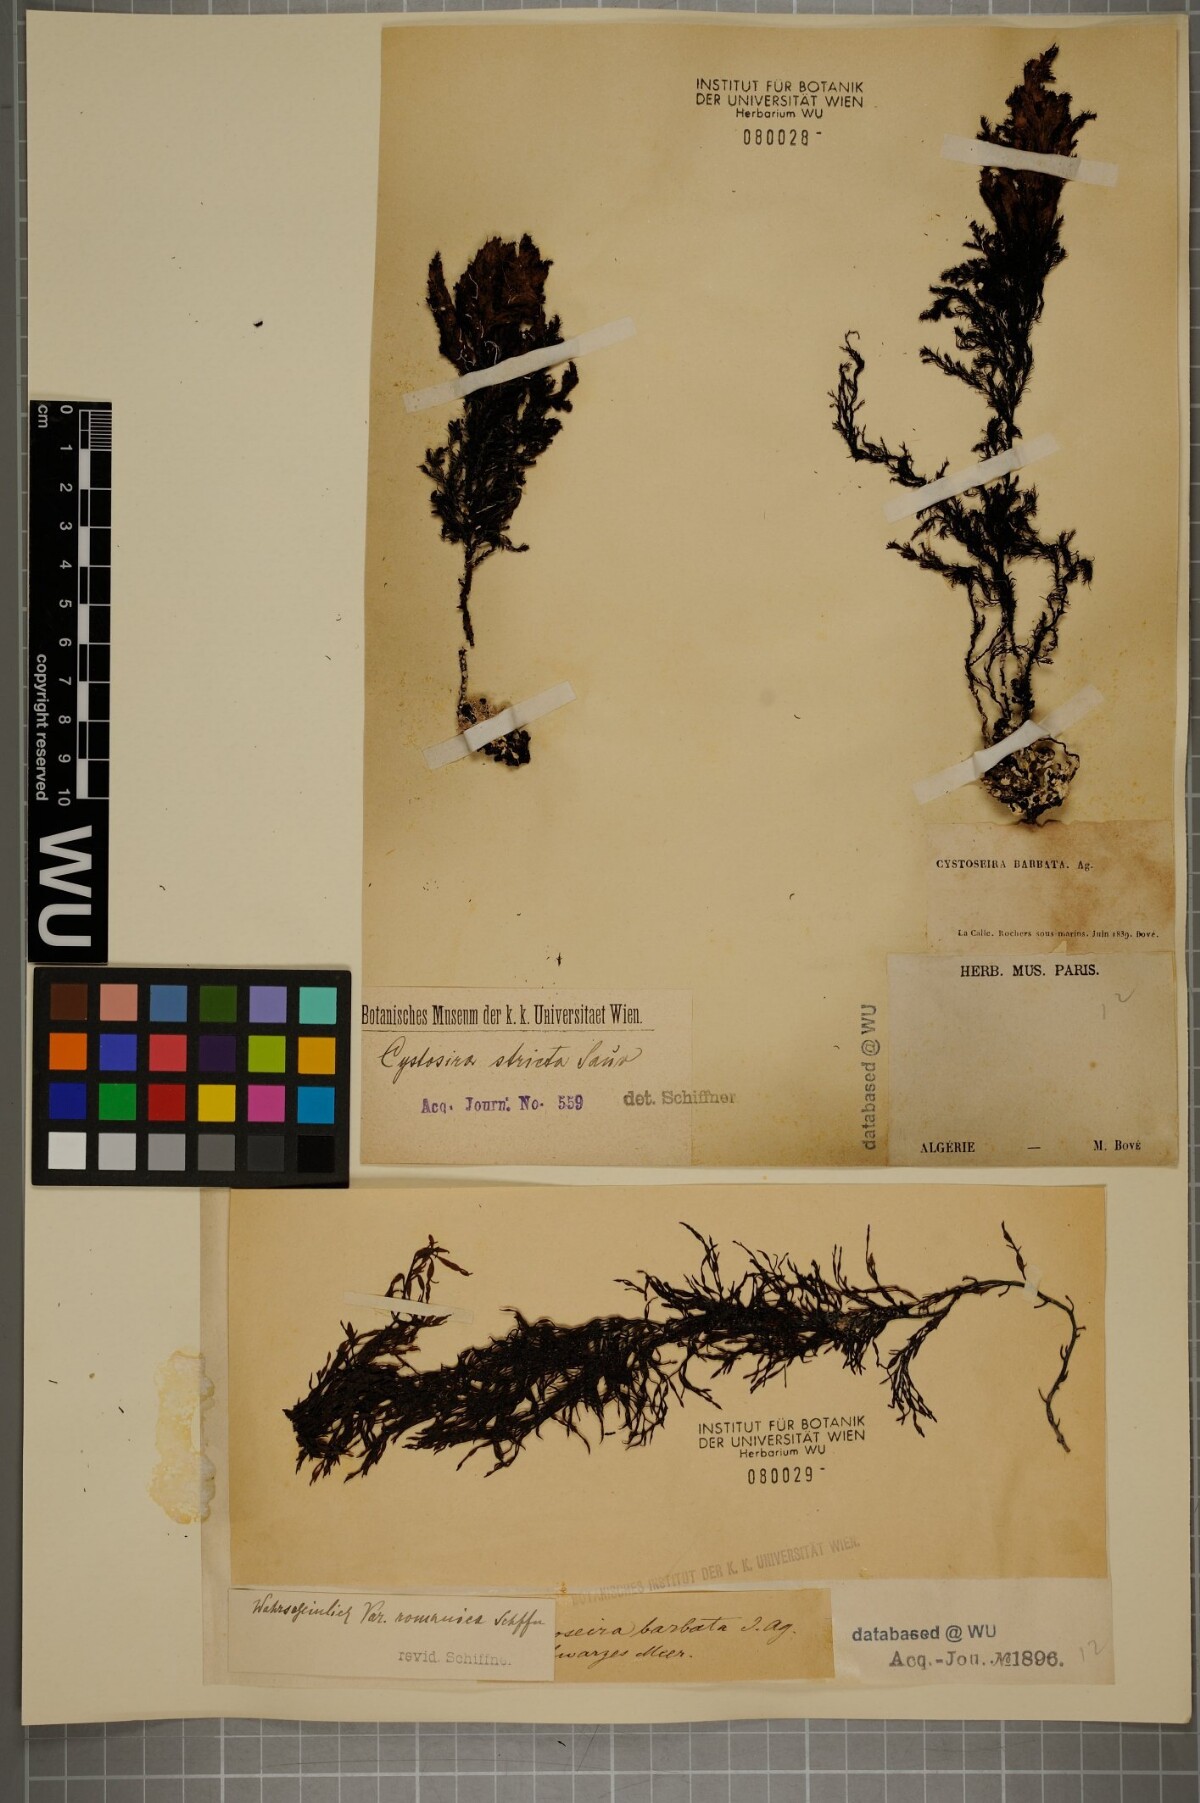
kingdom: Chromista
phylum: Ochrophyta
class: Phaeophyceae
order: Fucales
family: Sargassaceae
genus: Cystoseira
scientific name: Cystoseira Gongolaria barbata
